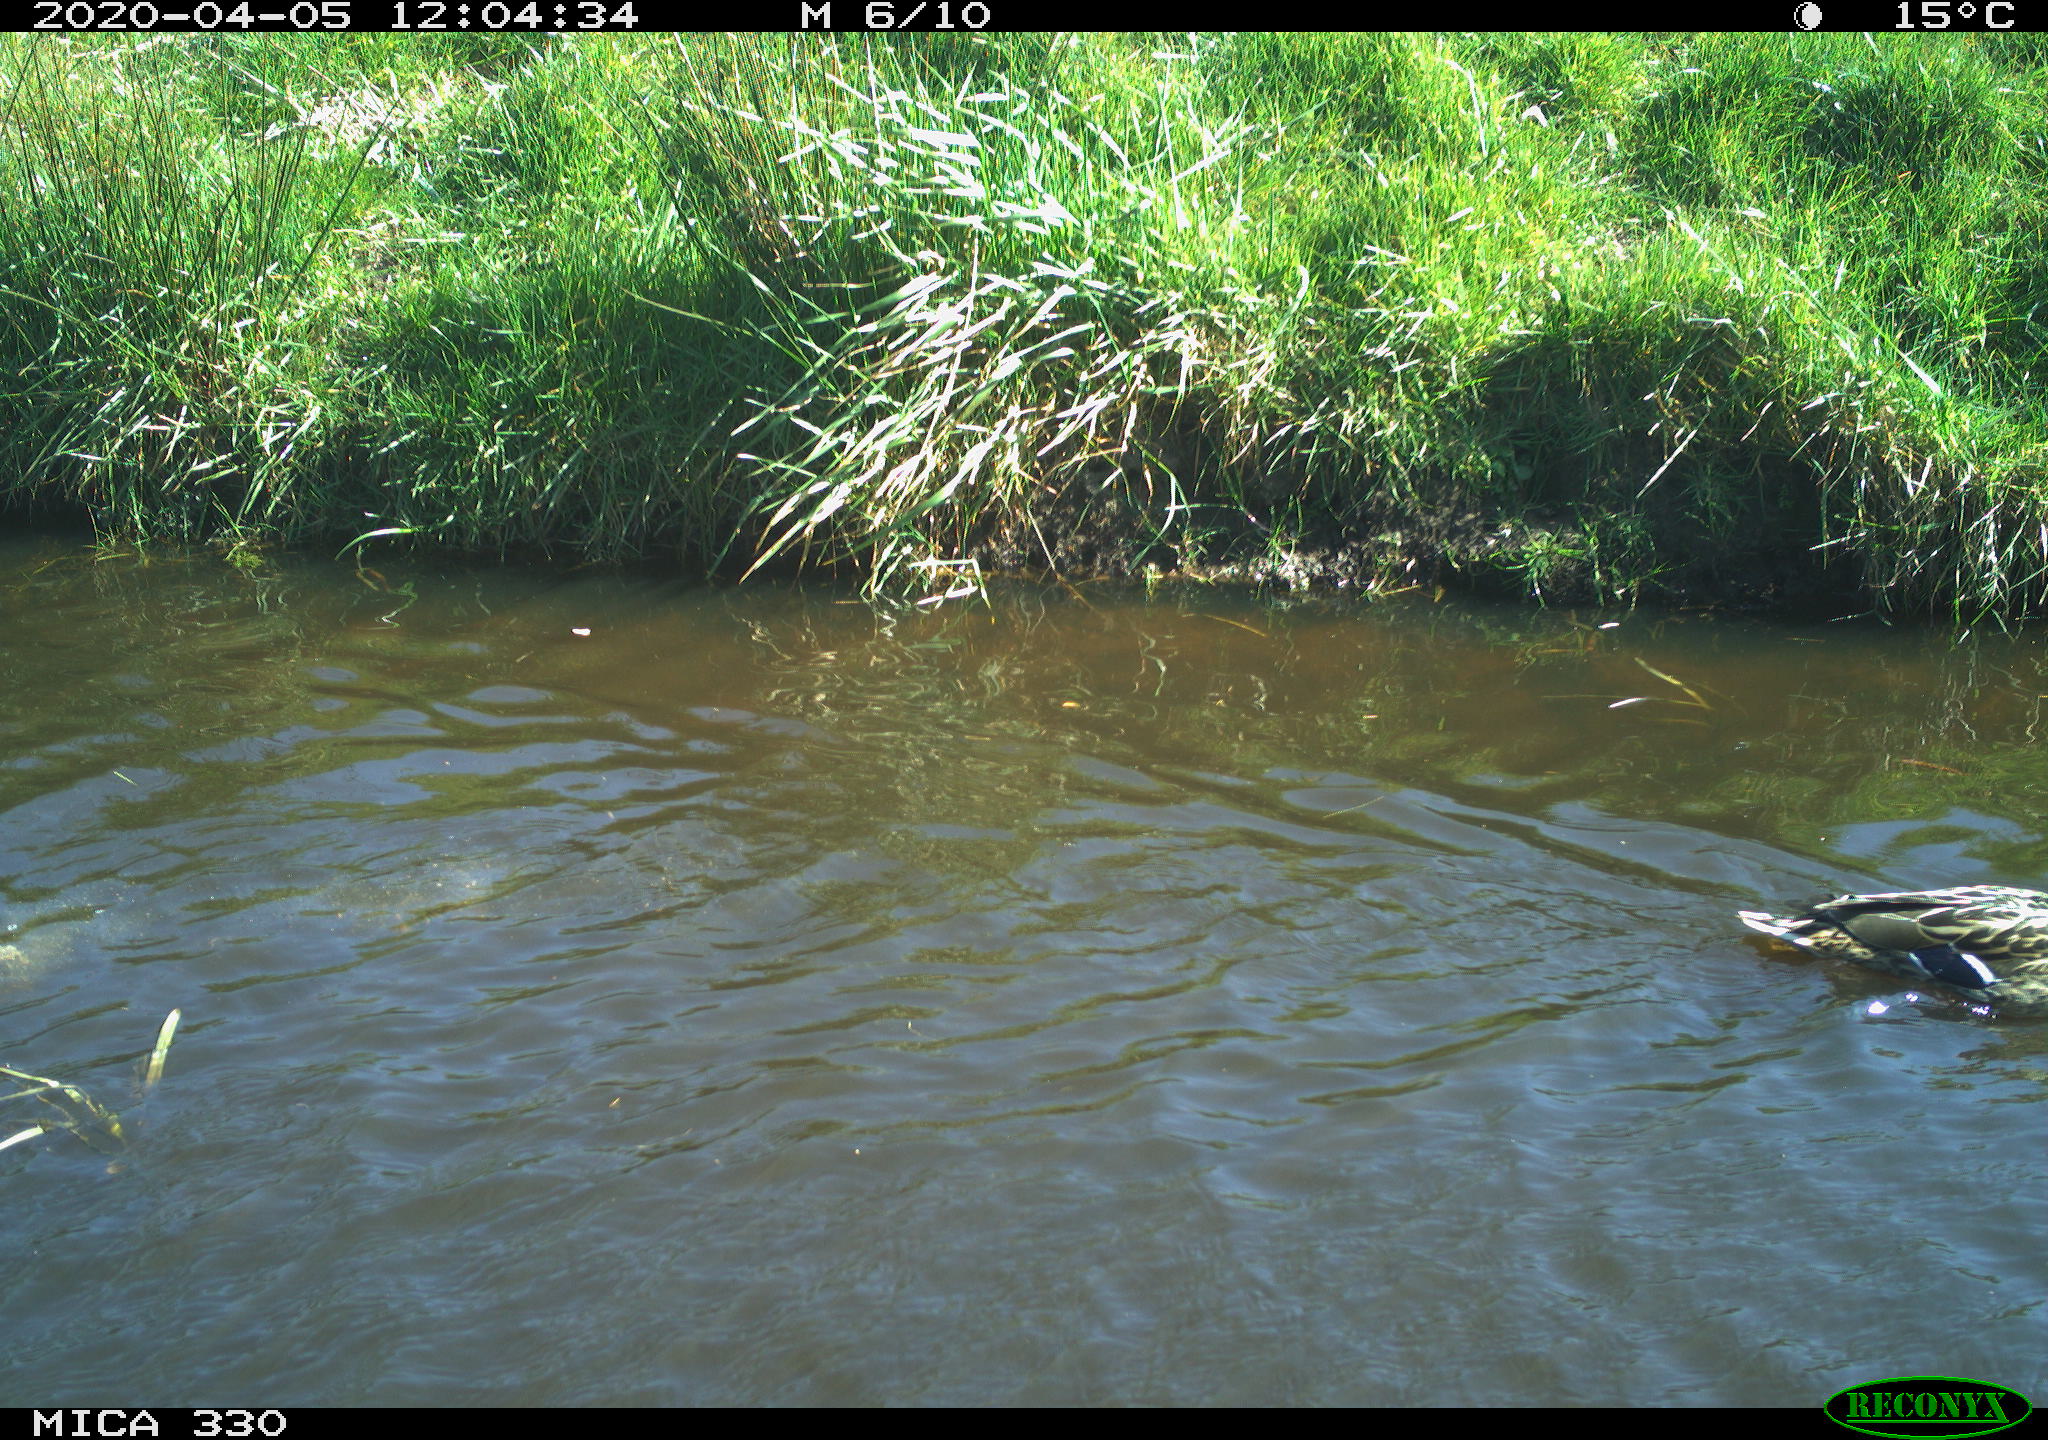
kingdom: Animalia
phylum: Chordata
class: Aves
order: Anseriformes
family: Anatidae
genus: Anas
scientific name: Anas platyrhynchos
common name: Mallard
